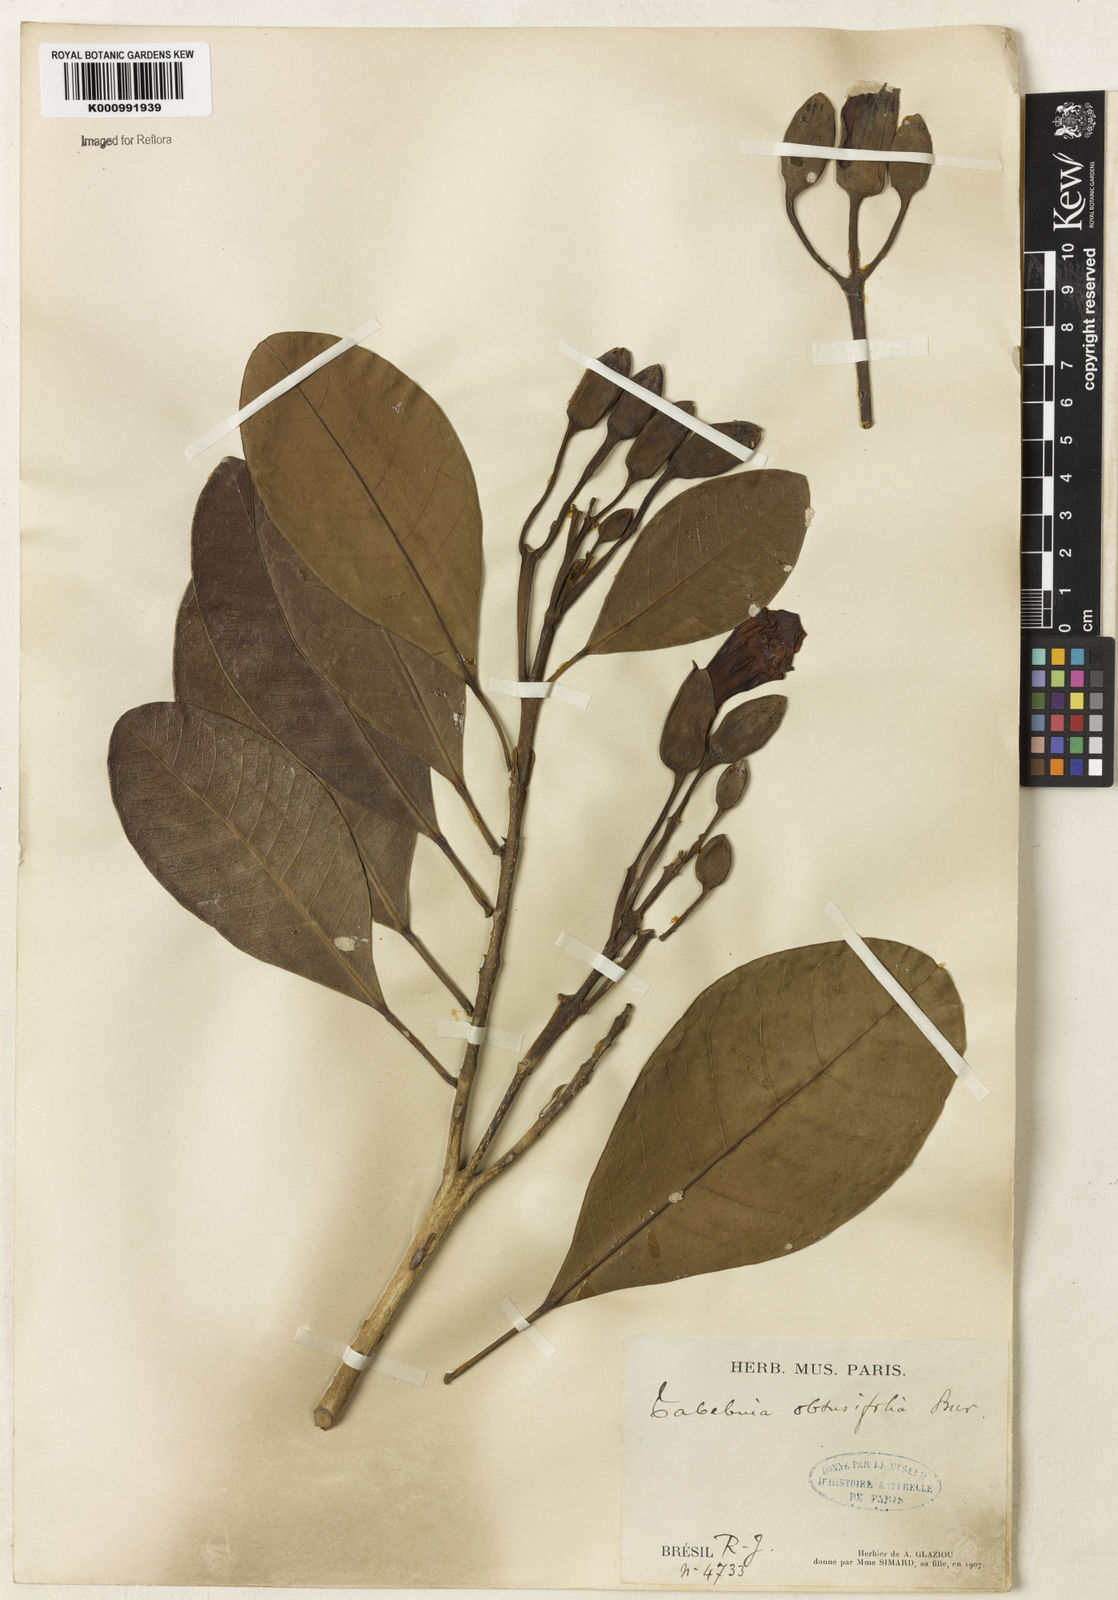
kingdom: Plantae
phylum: Tracheophyta
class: Magnoliopsida
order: Lamiales
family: Bignoniaceae
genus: Tabebuia
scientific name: Tabebuia obtusifolia
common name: Guadeloupe trumpet-tree
